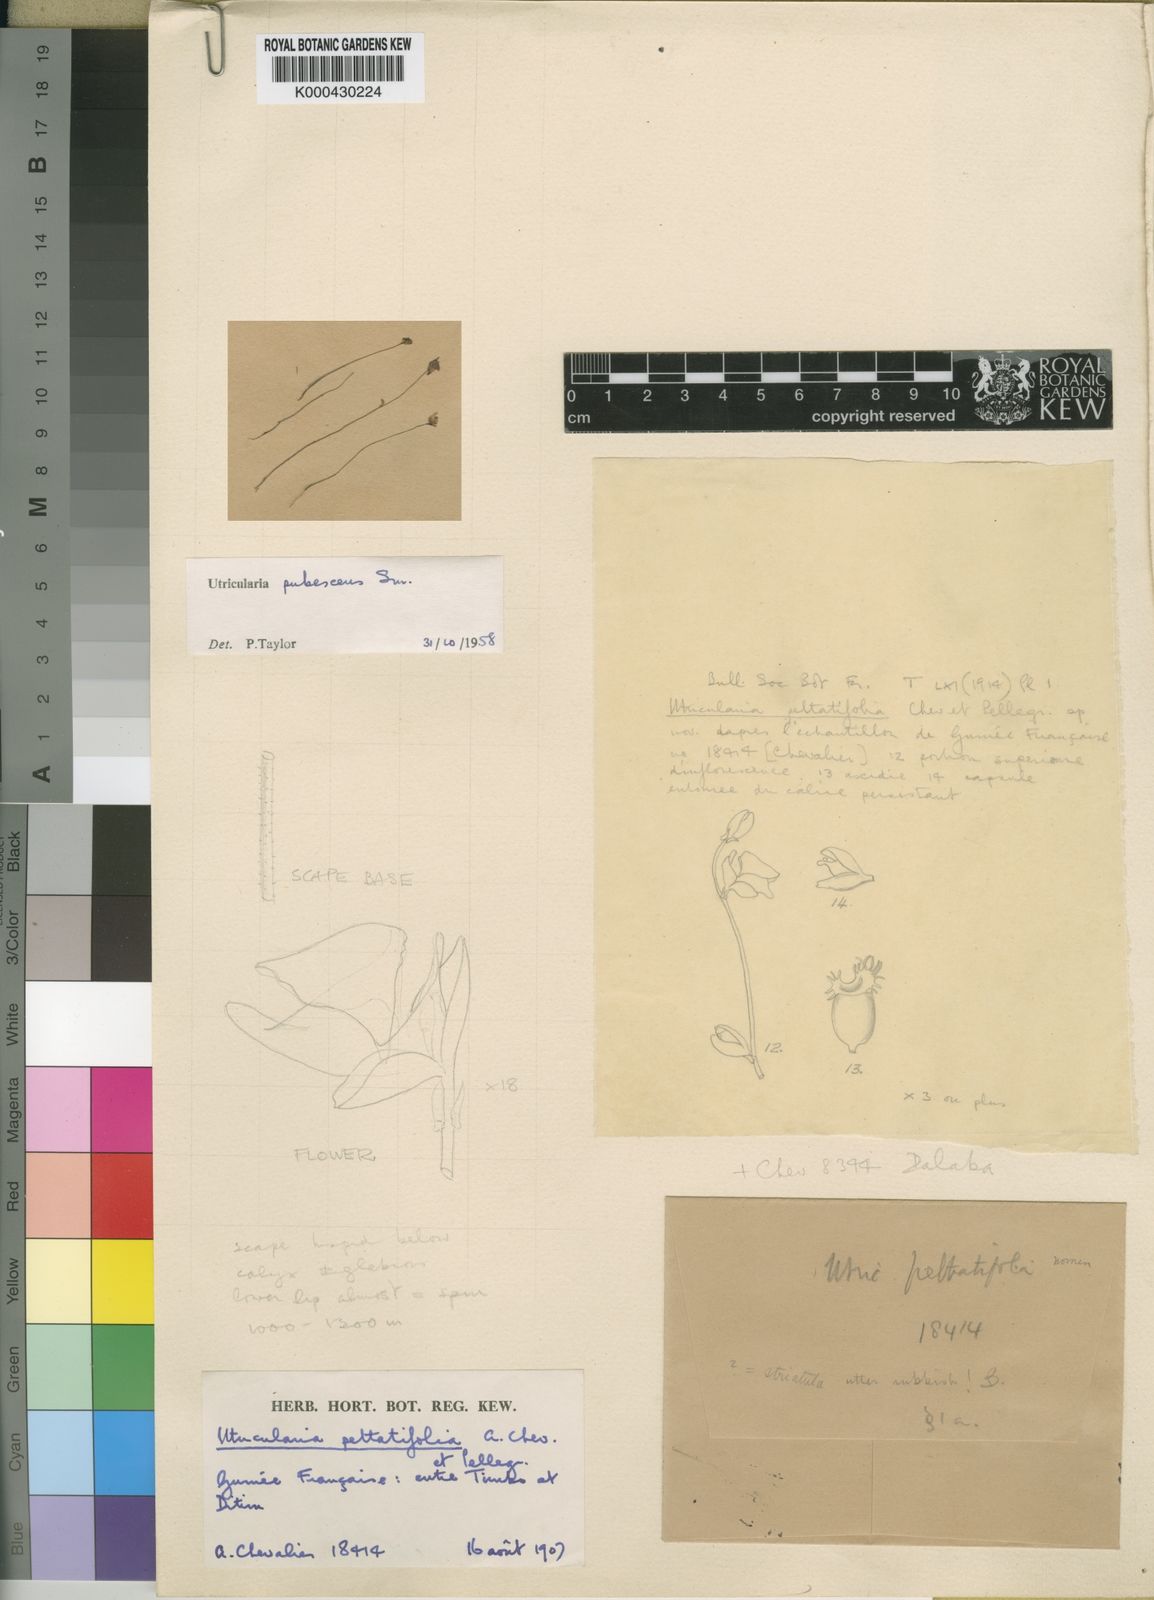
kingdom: Plantae
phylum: Tracheophyta
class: Magnoliopsida
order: Lamiales
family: Lentibulariaceae
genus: Utricularia
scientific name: Utricularia pubescens
